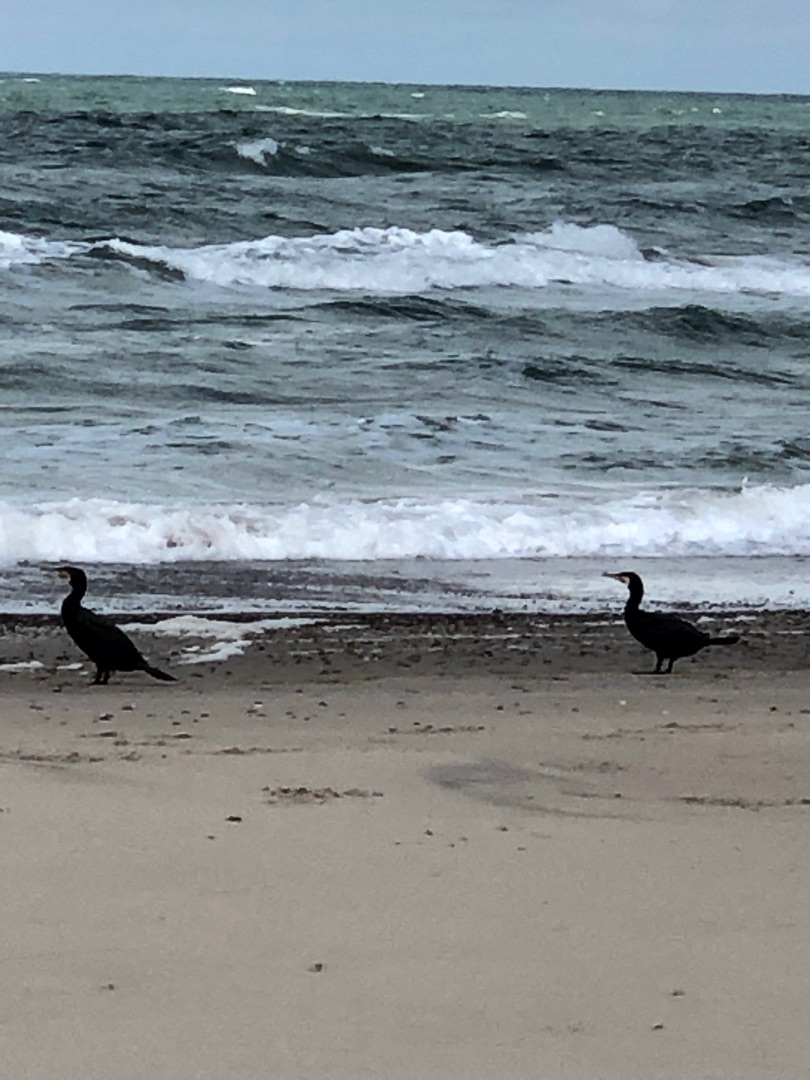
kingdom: Animalia
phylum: Chordata
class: Aves
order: Suliformes
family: Phalacrocoracidae
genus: Phalacrocorax
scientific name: Phalacrocorax carbo
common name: Skarv
